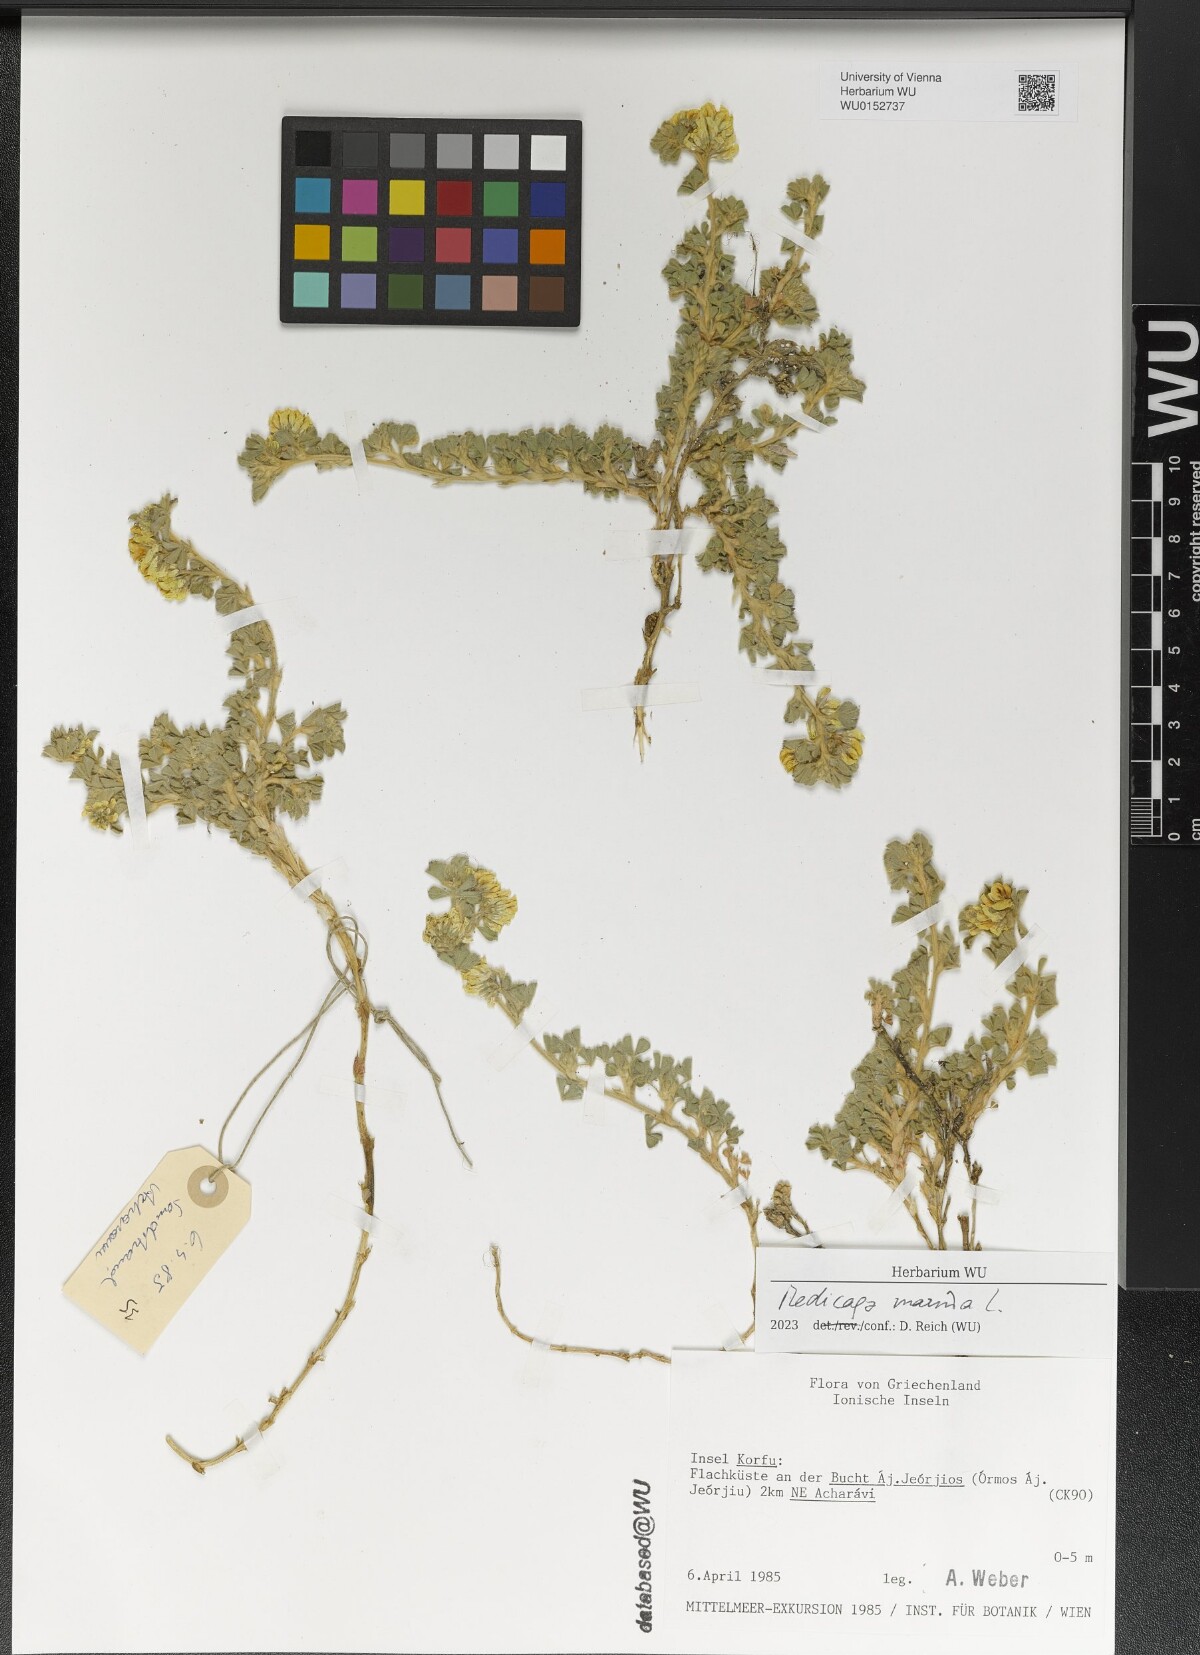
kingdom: Plantae
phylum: Tracheophyta
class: Magnoliopsida
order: Fabales
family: Fabaceae
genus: Medicago
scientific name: Medicago marina
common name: Sea medick
